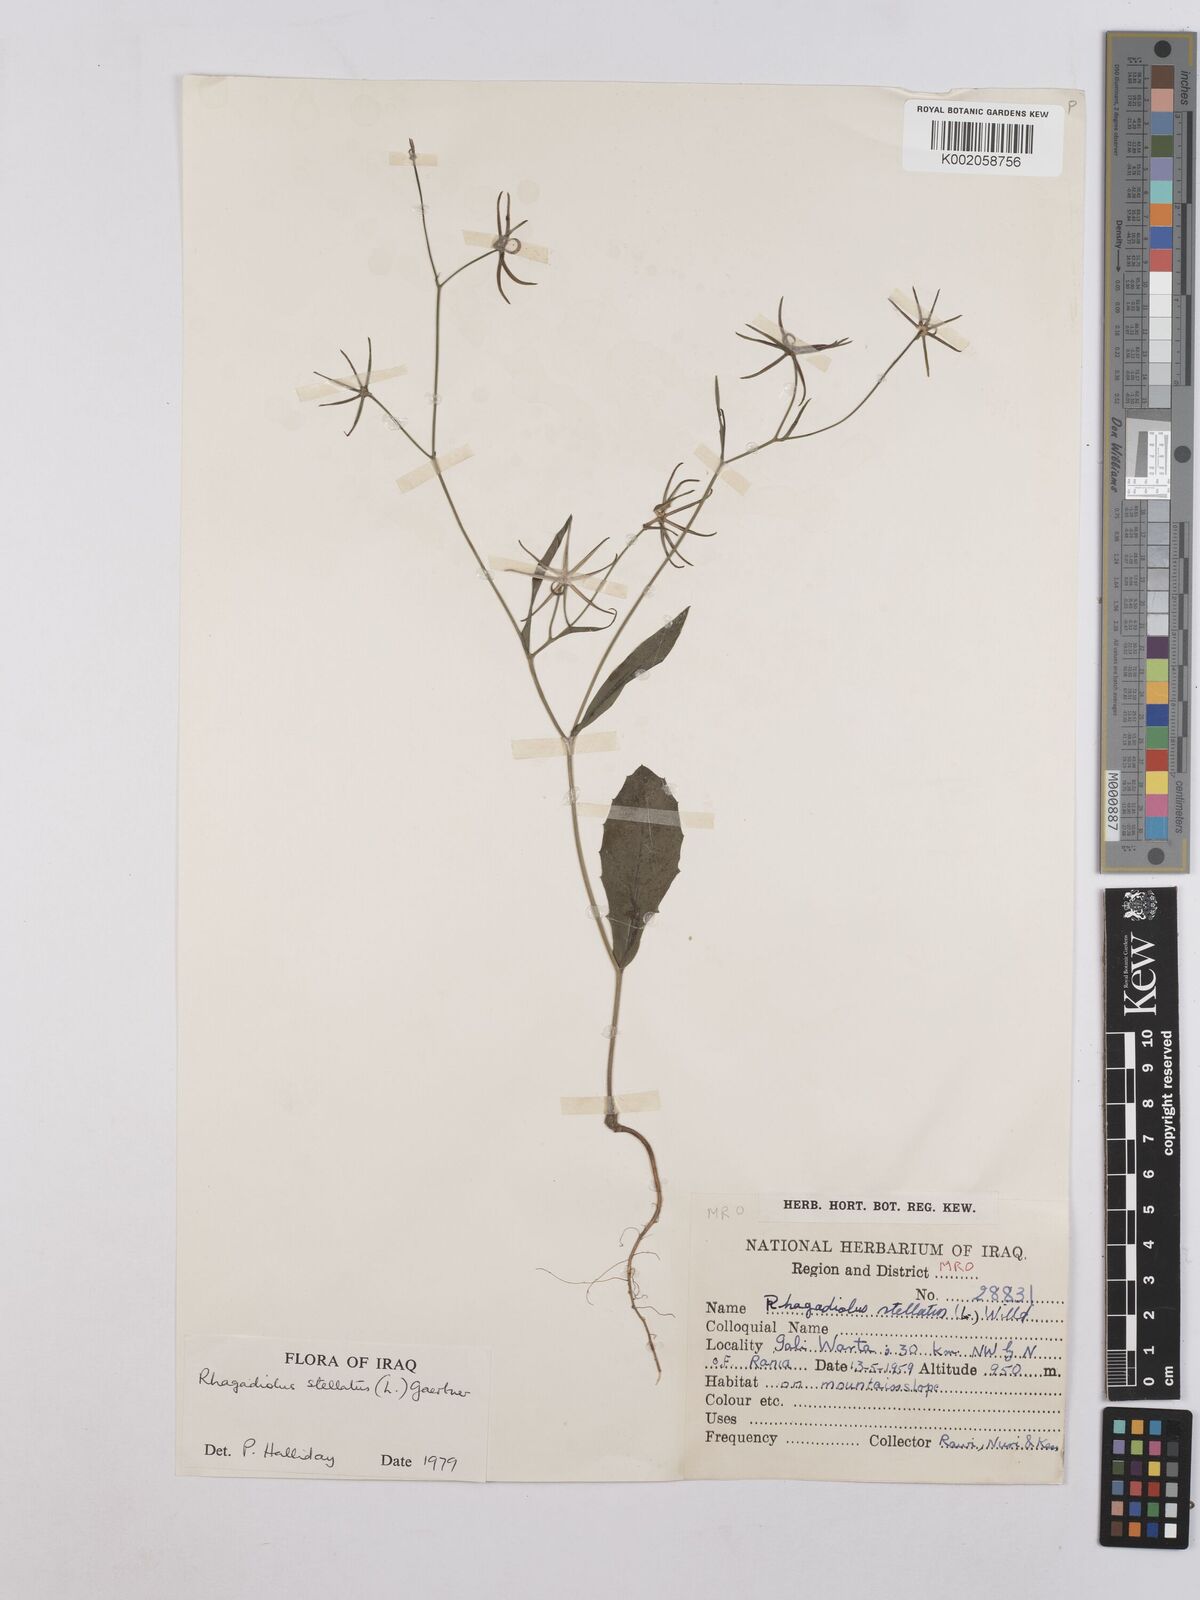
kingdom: Plantae
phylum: Tracheophyta
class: Magnoliopsida
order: Asterales
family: Asteraceae
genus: Rhagadiolus
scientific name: Rhagadiolus stellatus
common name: Star hawkbit
